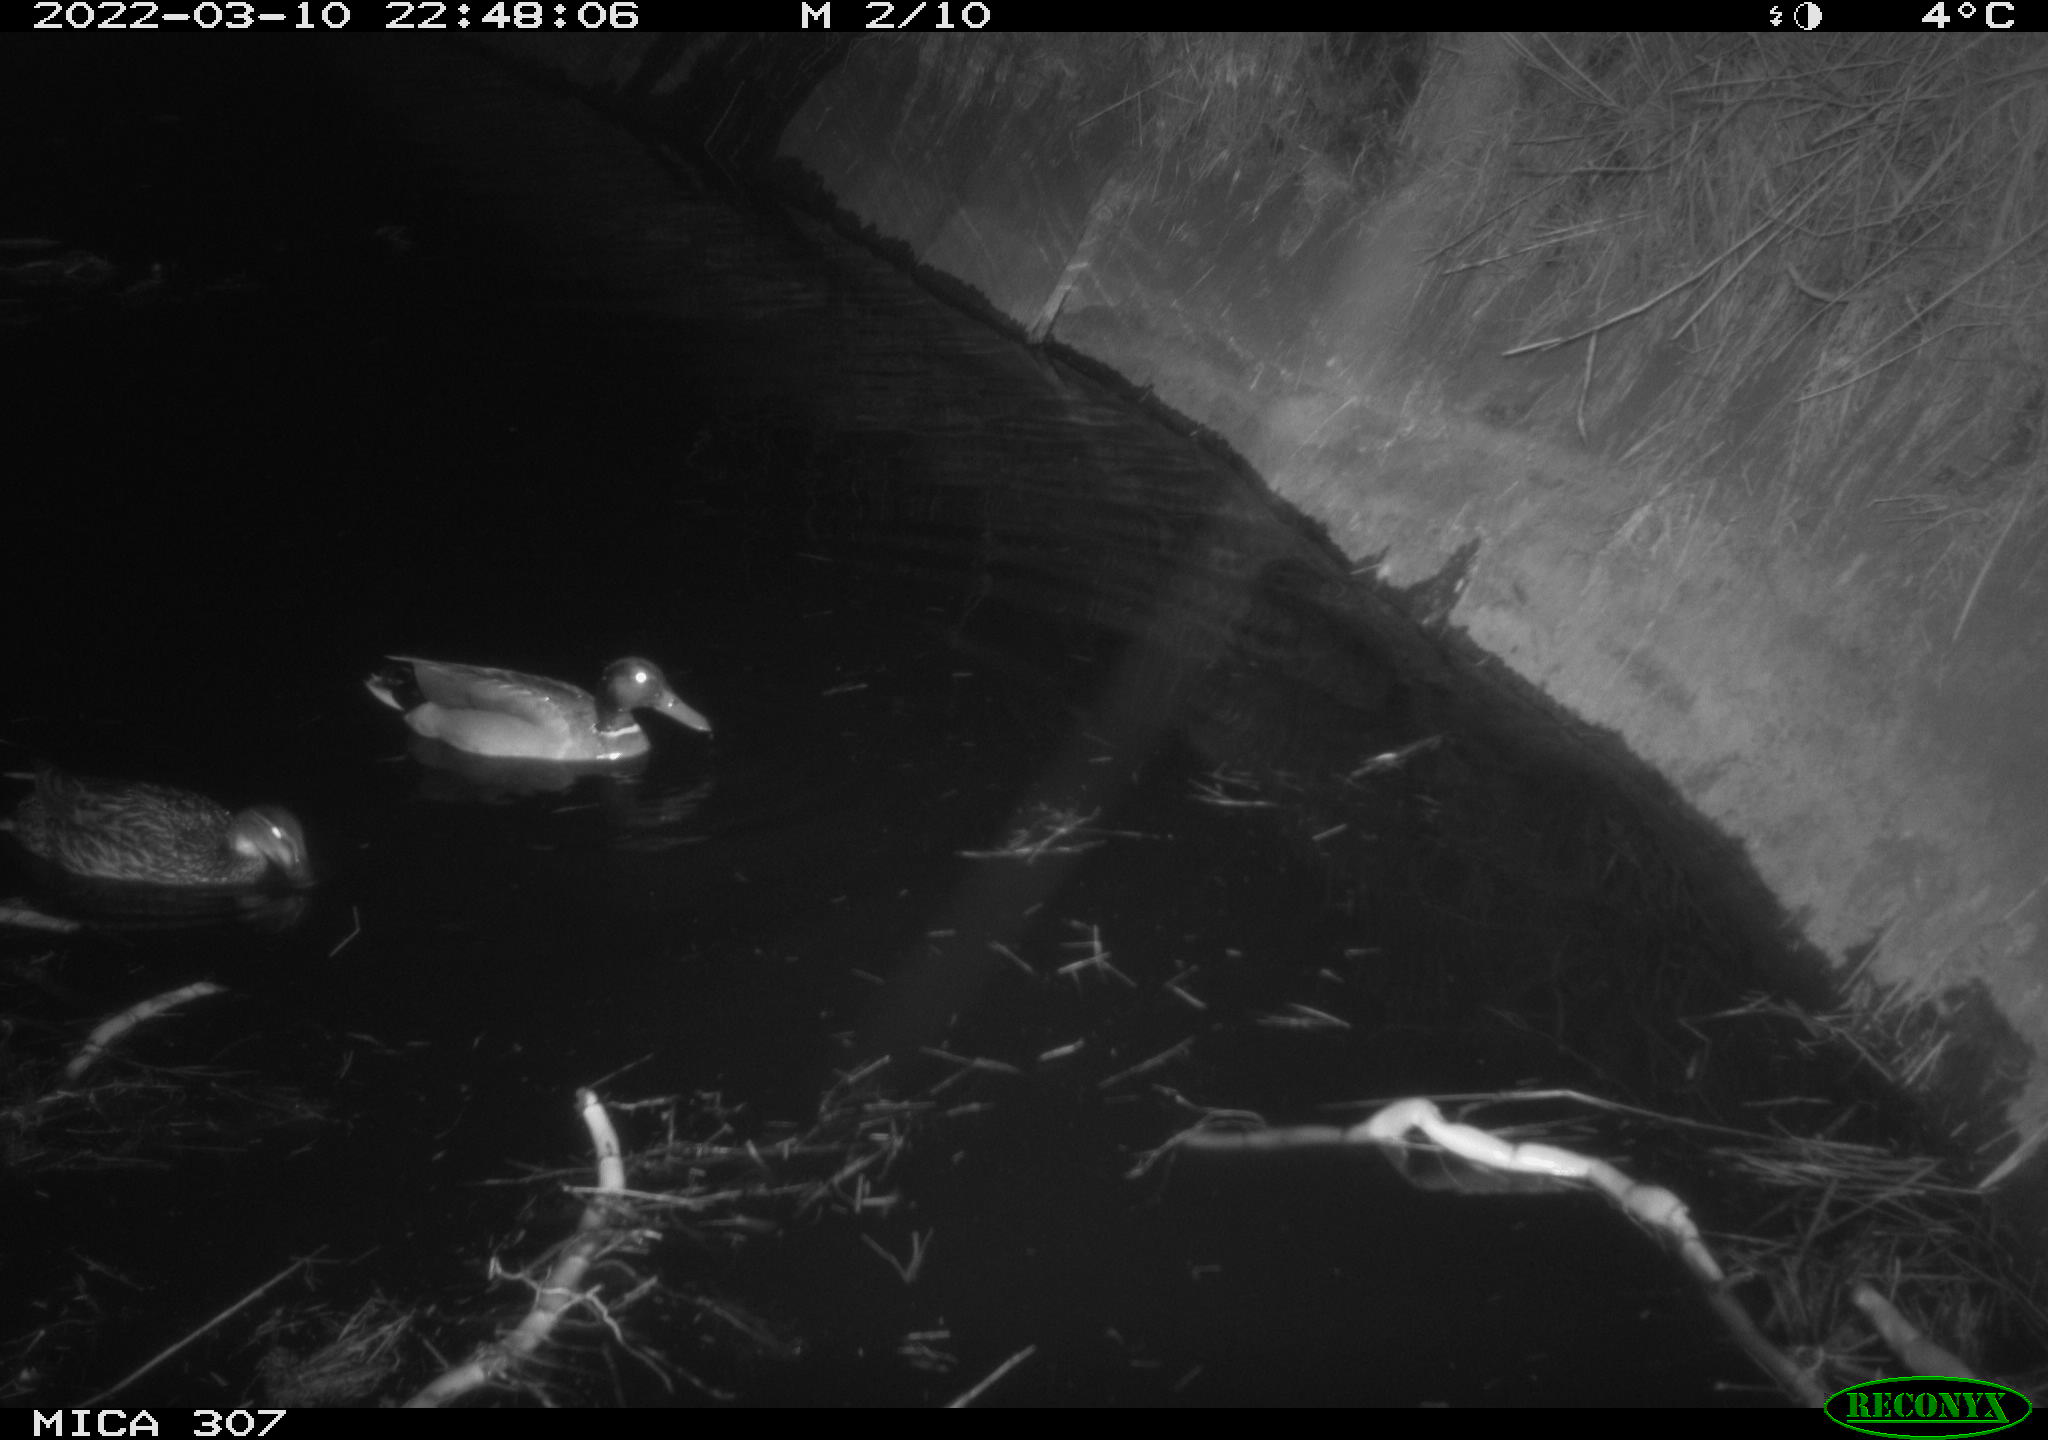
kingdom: Animalia
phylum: Chordata
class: Aves
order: Anseriformes
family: Anatidae
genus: Anas
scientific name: Anas platyrhynchos
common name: Mallard
